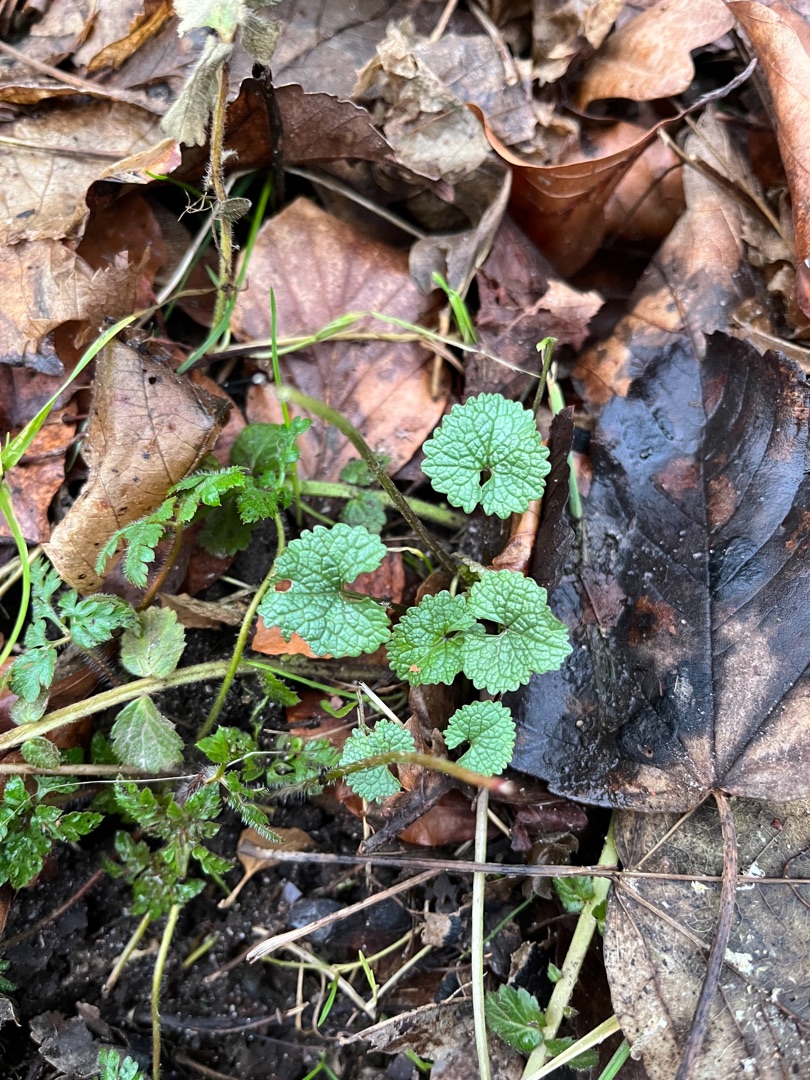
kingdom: Plantae
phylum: Tracheophyta
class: Magnoliopsida
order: Brassicales
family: Brassicaceae
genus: Alliaria
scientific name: Alliaria petiolata
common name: Løgkarse
